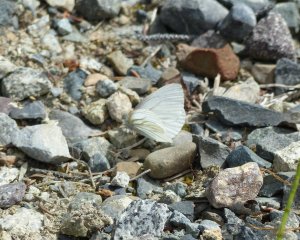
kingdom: Animalia
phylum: Arthropoda
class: Insecta
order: Lepidoptera
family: Pieridae
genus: Pieris
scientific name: Pieris angelika
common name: Arctic White
